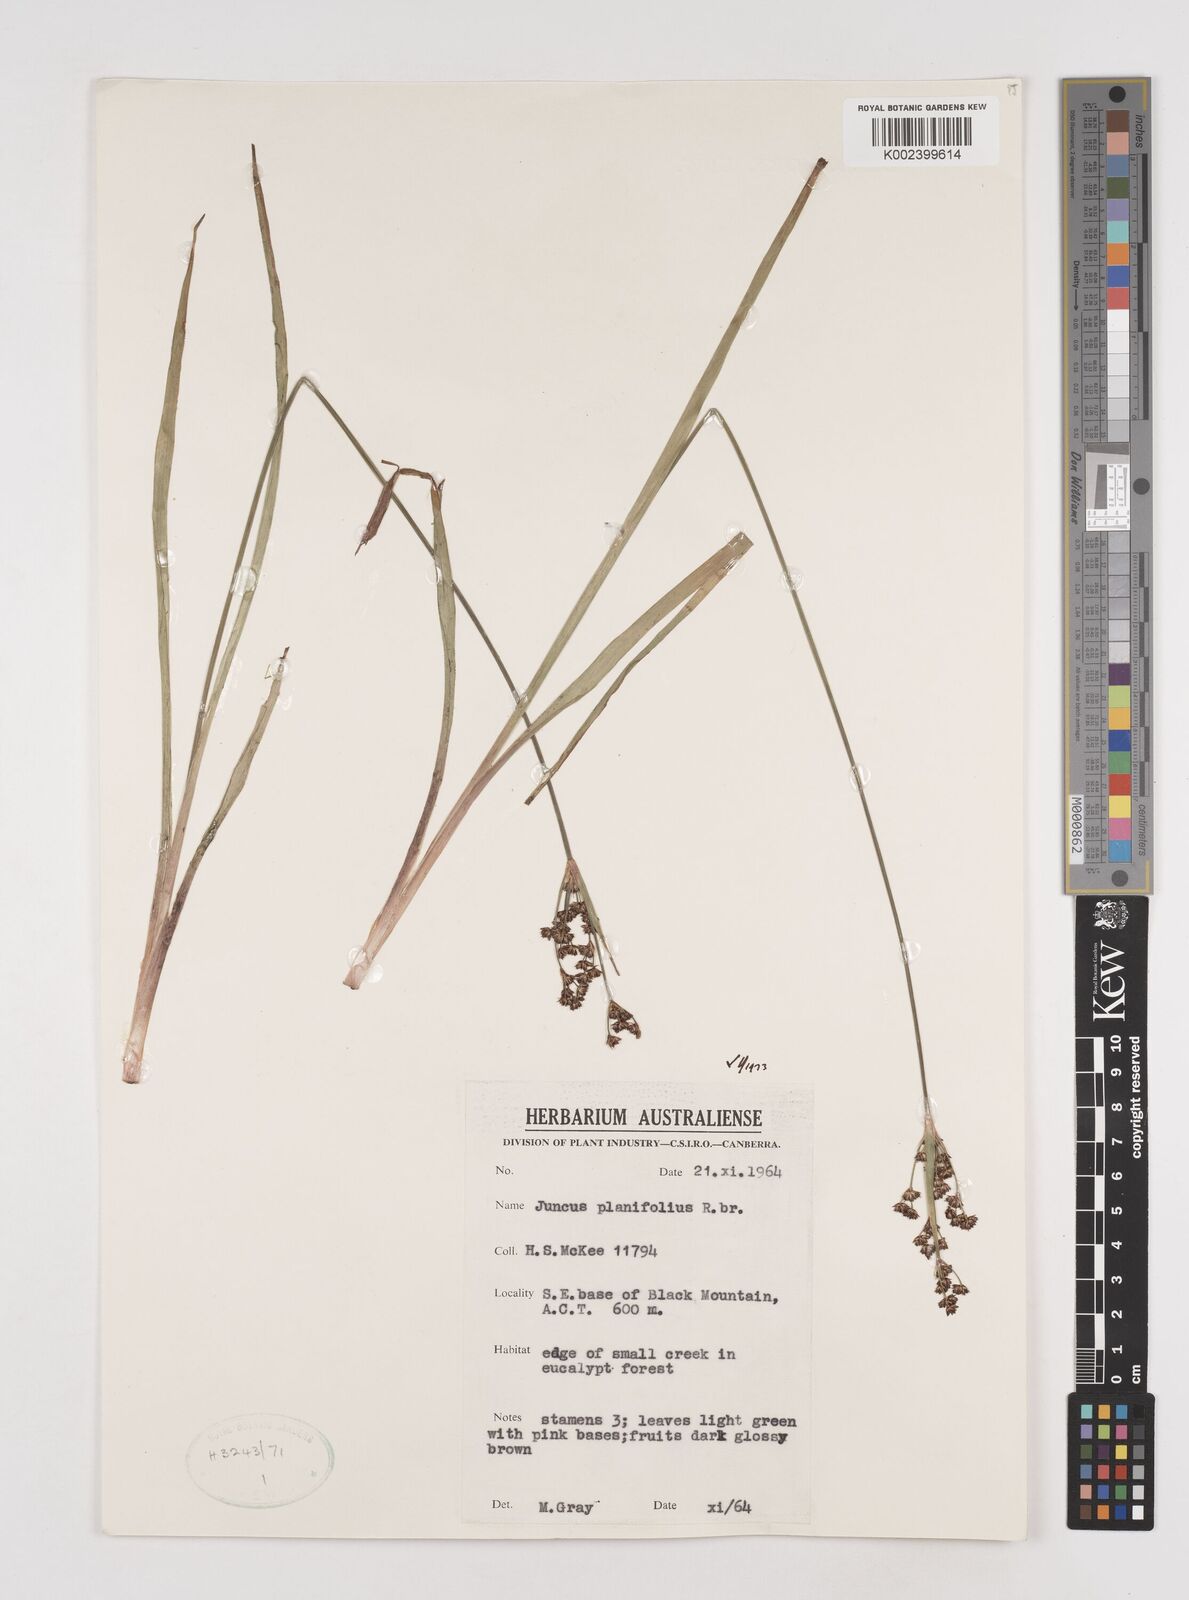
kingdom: Plantae
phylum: Tracheophyta
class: Liliopsida
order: Poales
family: Juncaceae
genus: Juncus
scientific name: Juncus planifolius
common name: Broadleaf rush
